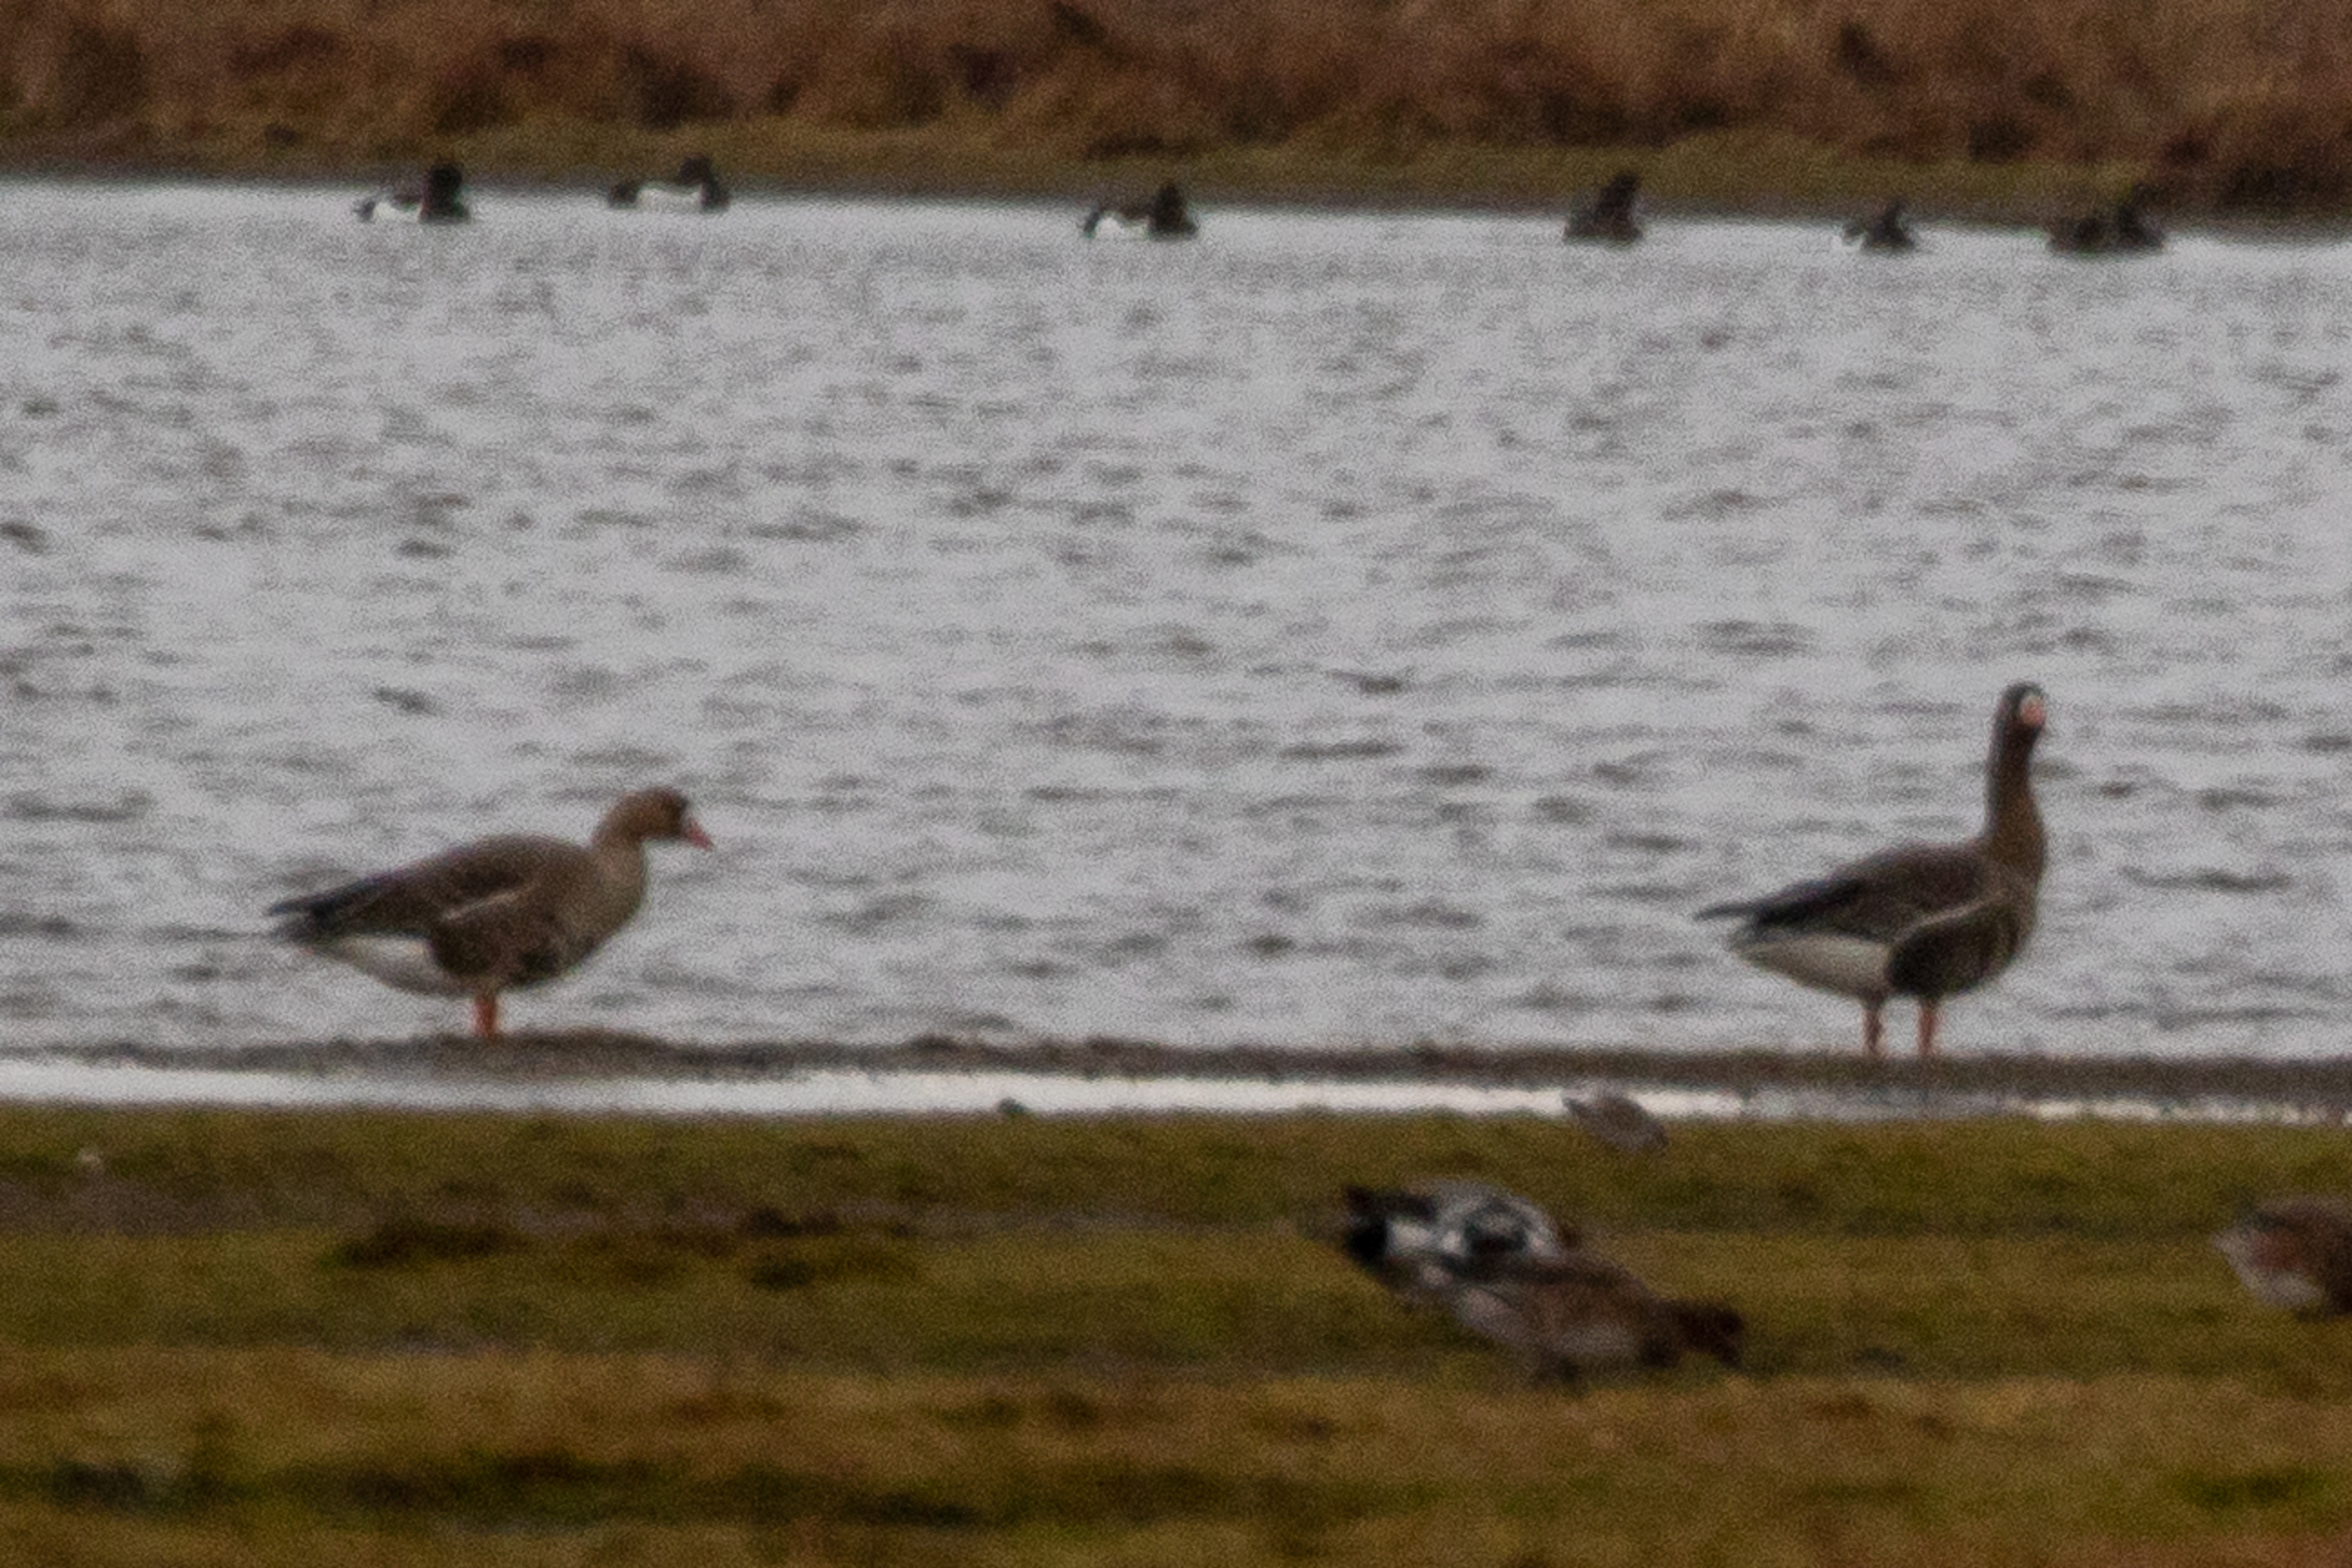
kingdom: Animalia
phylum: Chordata
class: Aves
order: Anseriformes
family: Anatidae
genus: Anser
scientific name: Anser albifrons
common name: Blisgås
